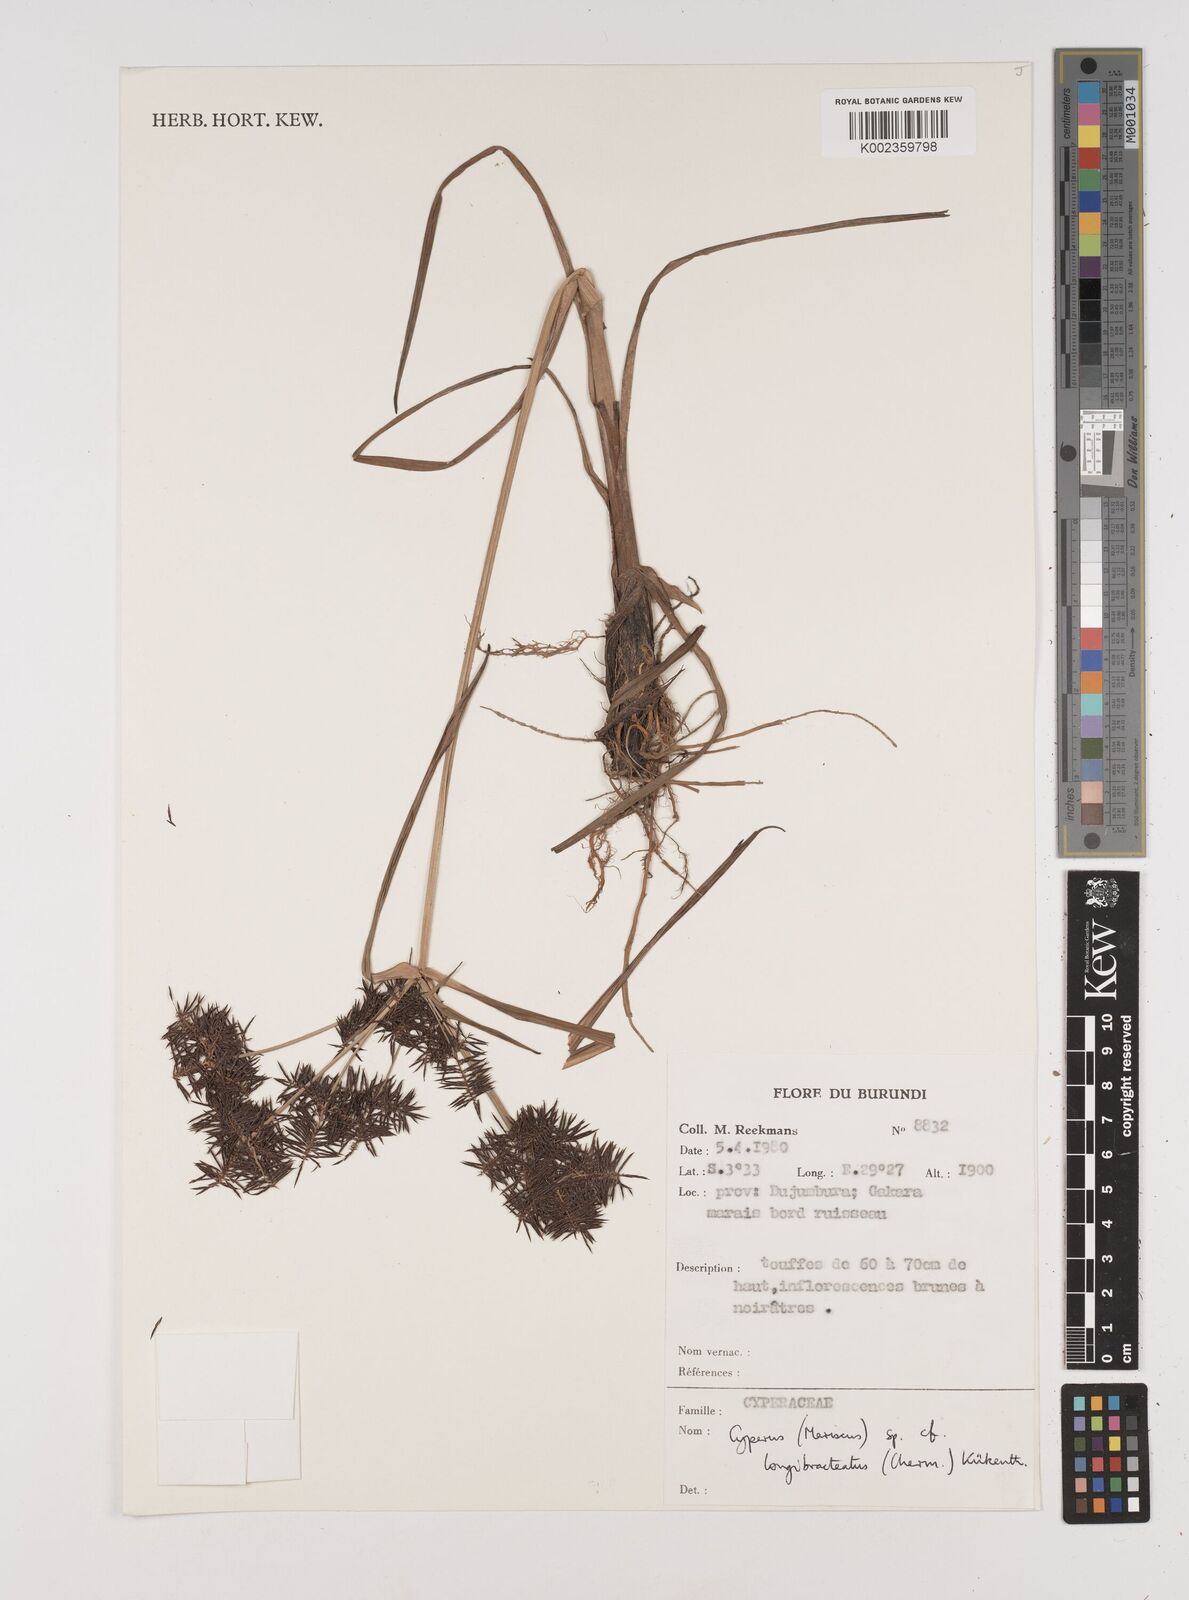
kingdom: Plantae
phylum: Tracheophyta
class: Liliopsida
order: Poales
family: Cyperaceae
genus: Cyperus
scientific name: Cyperus distans
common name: Slender cyperus
